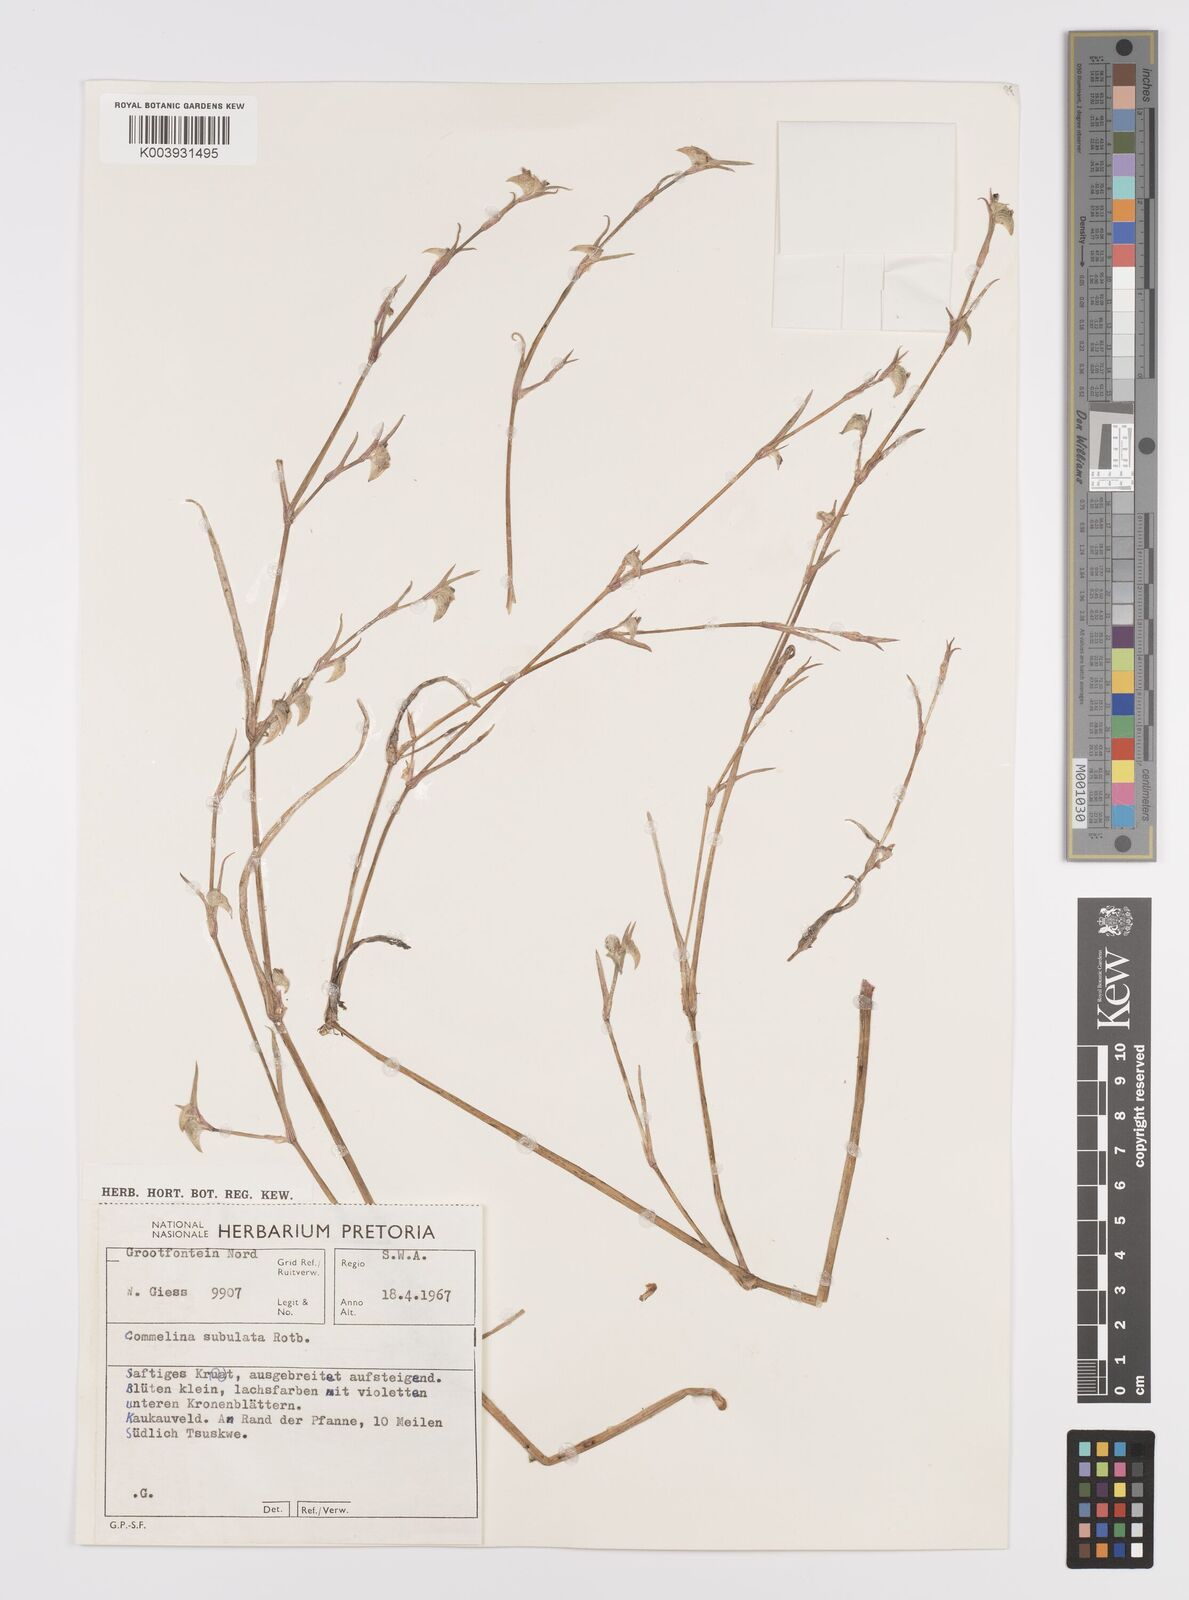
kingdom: Plantae
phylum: Tracheophyta
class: Liliopsida
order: Commelinales
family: Commelinaceae
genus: Commelina
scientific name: Commelina subulata
